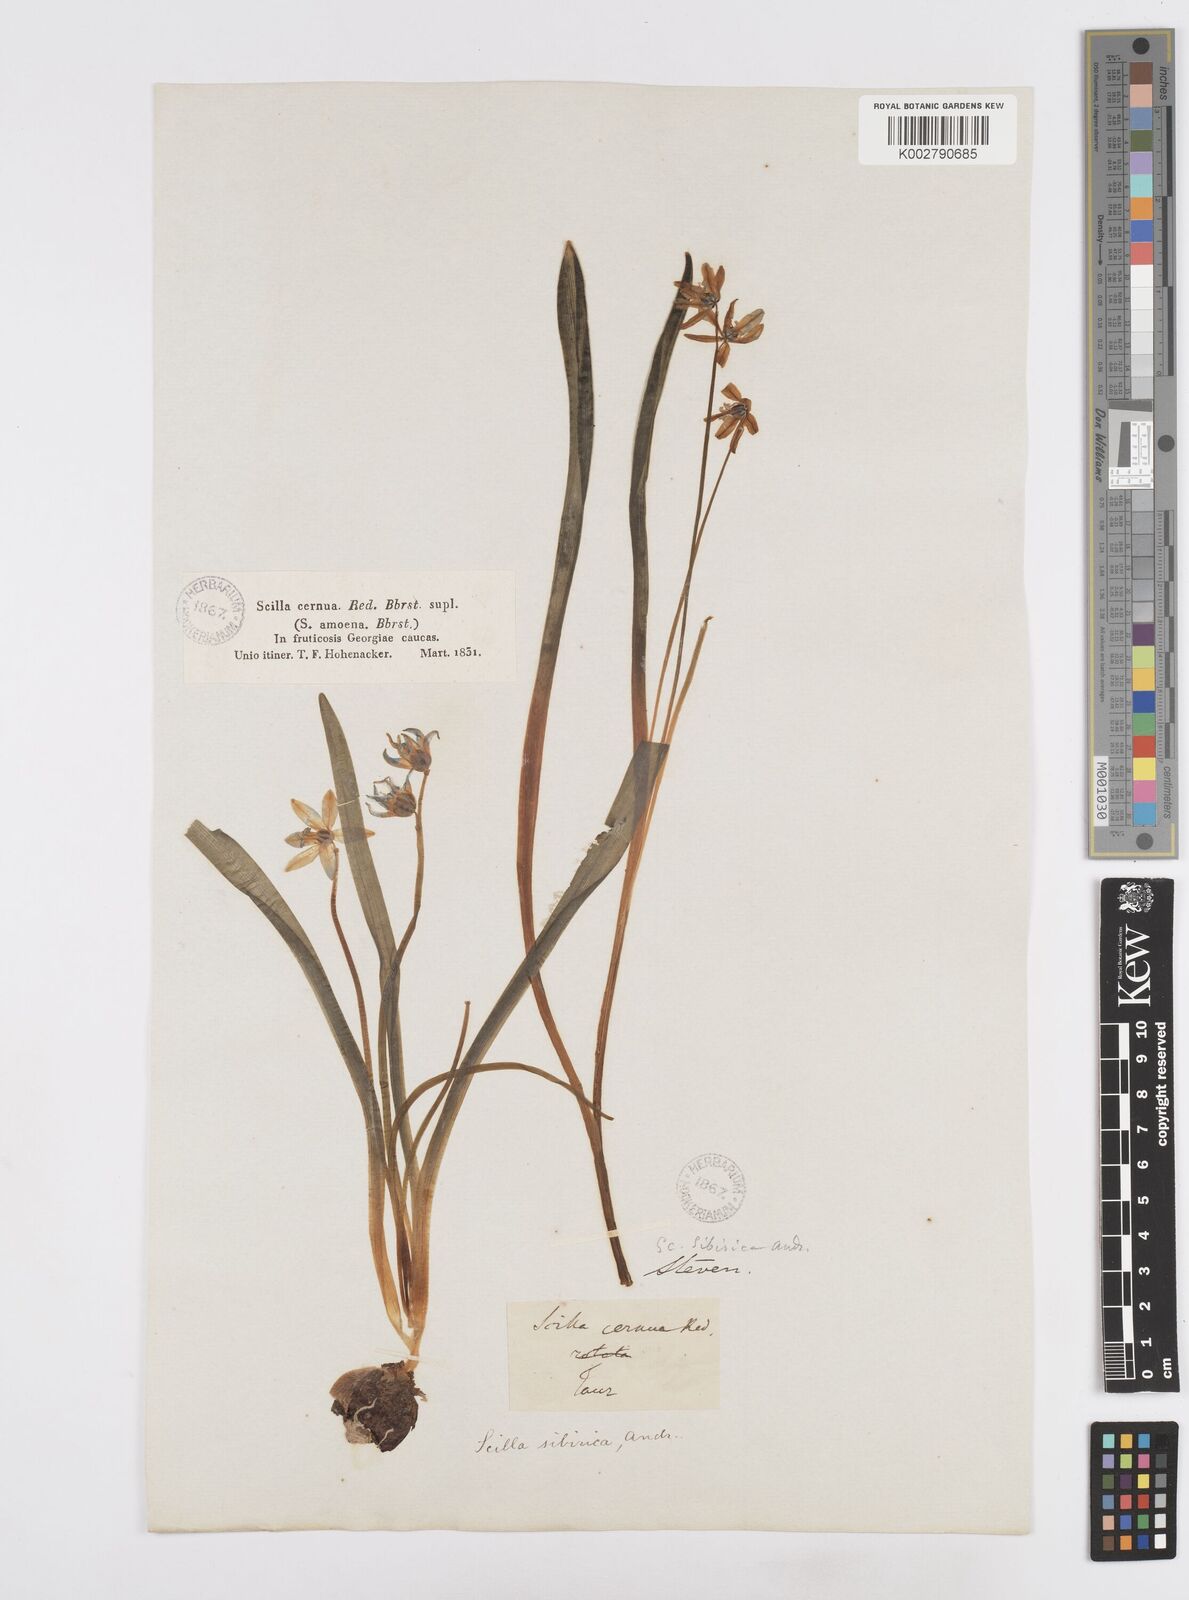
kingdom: Plantae
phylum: Tracheophyta
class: Liliopsida
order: Asparagales
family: Asparagaceae
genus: Scilla
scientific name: Scilla siberica
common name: Siberian squill
